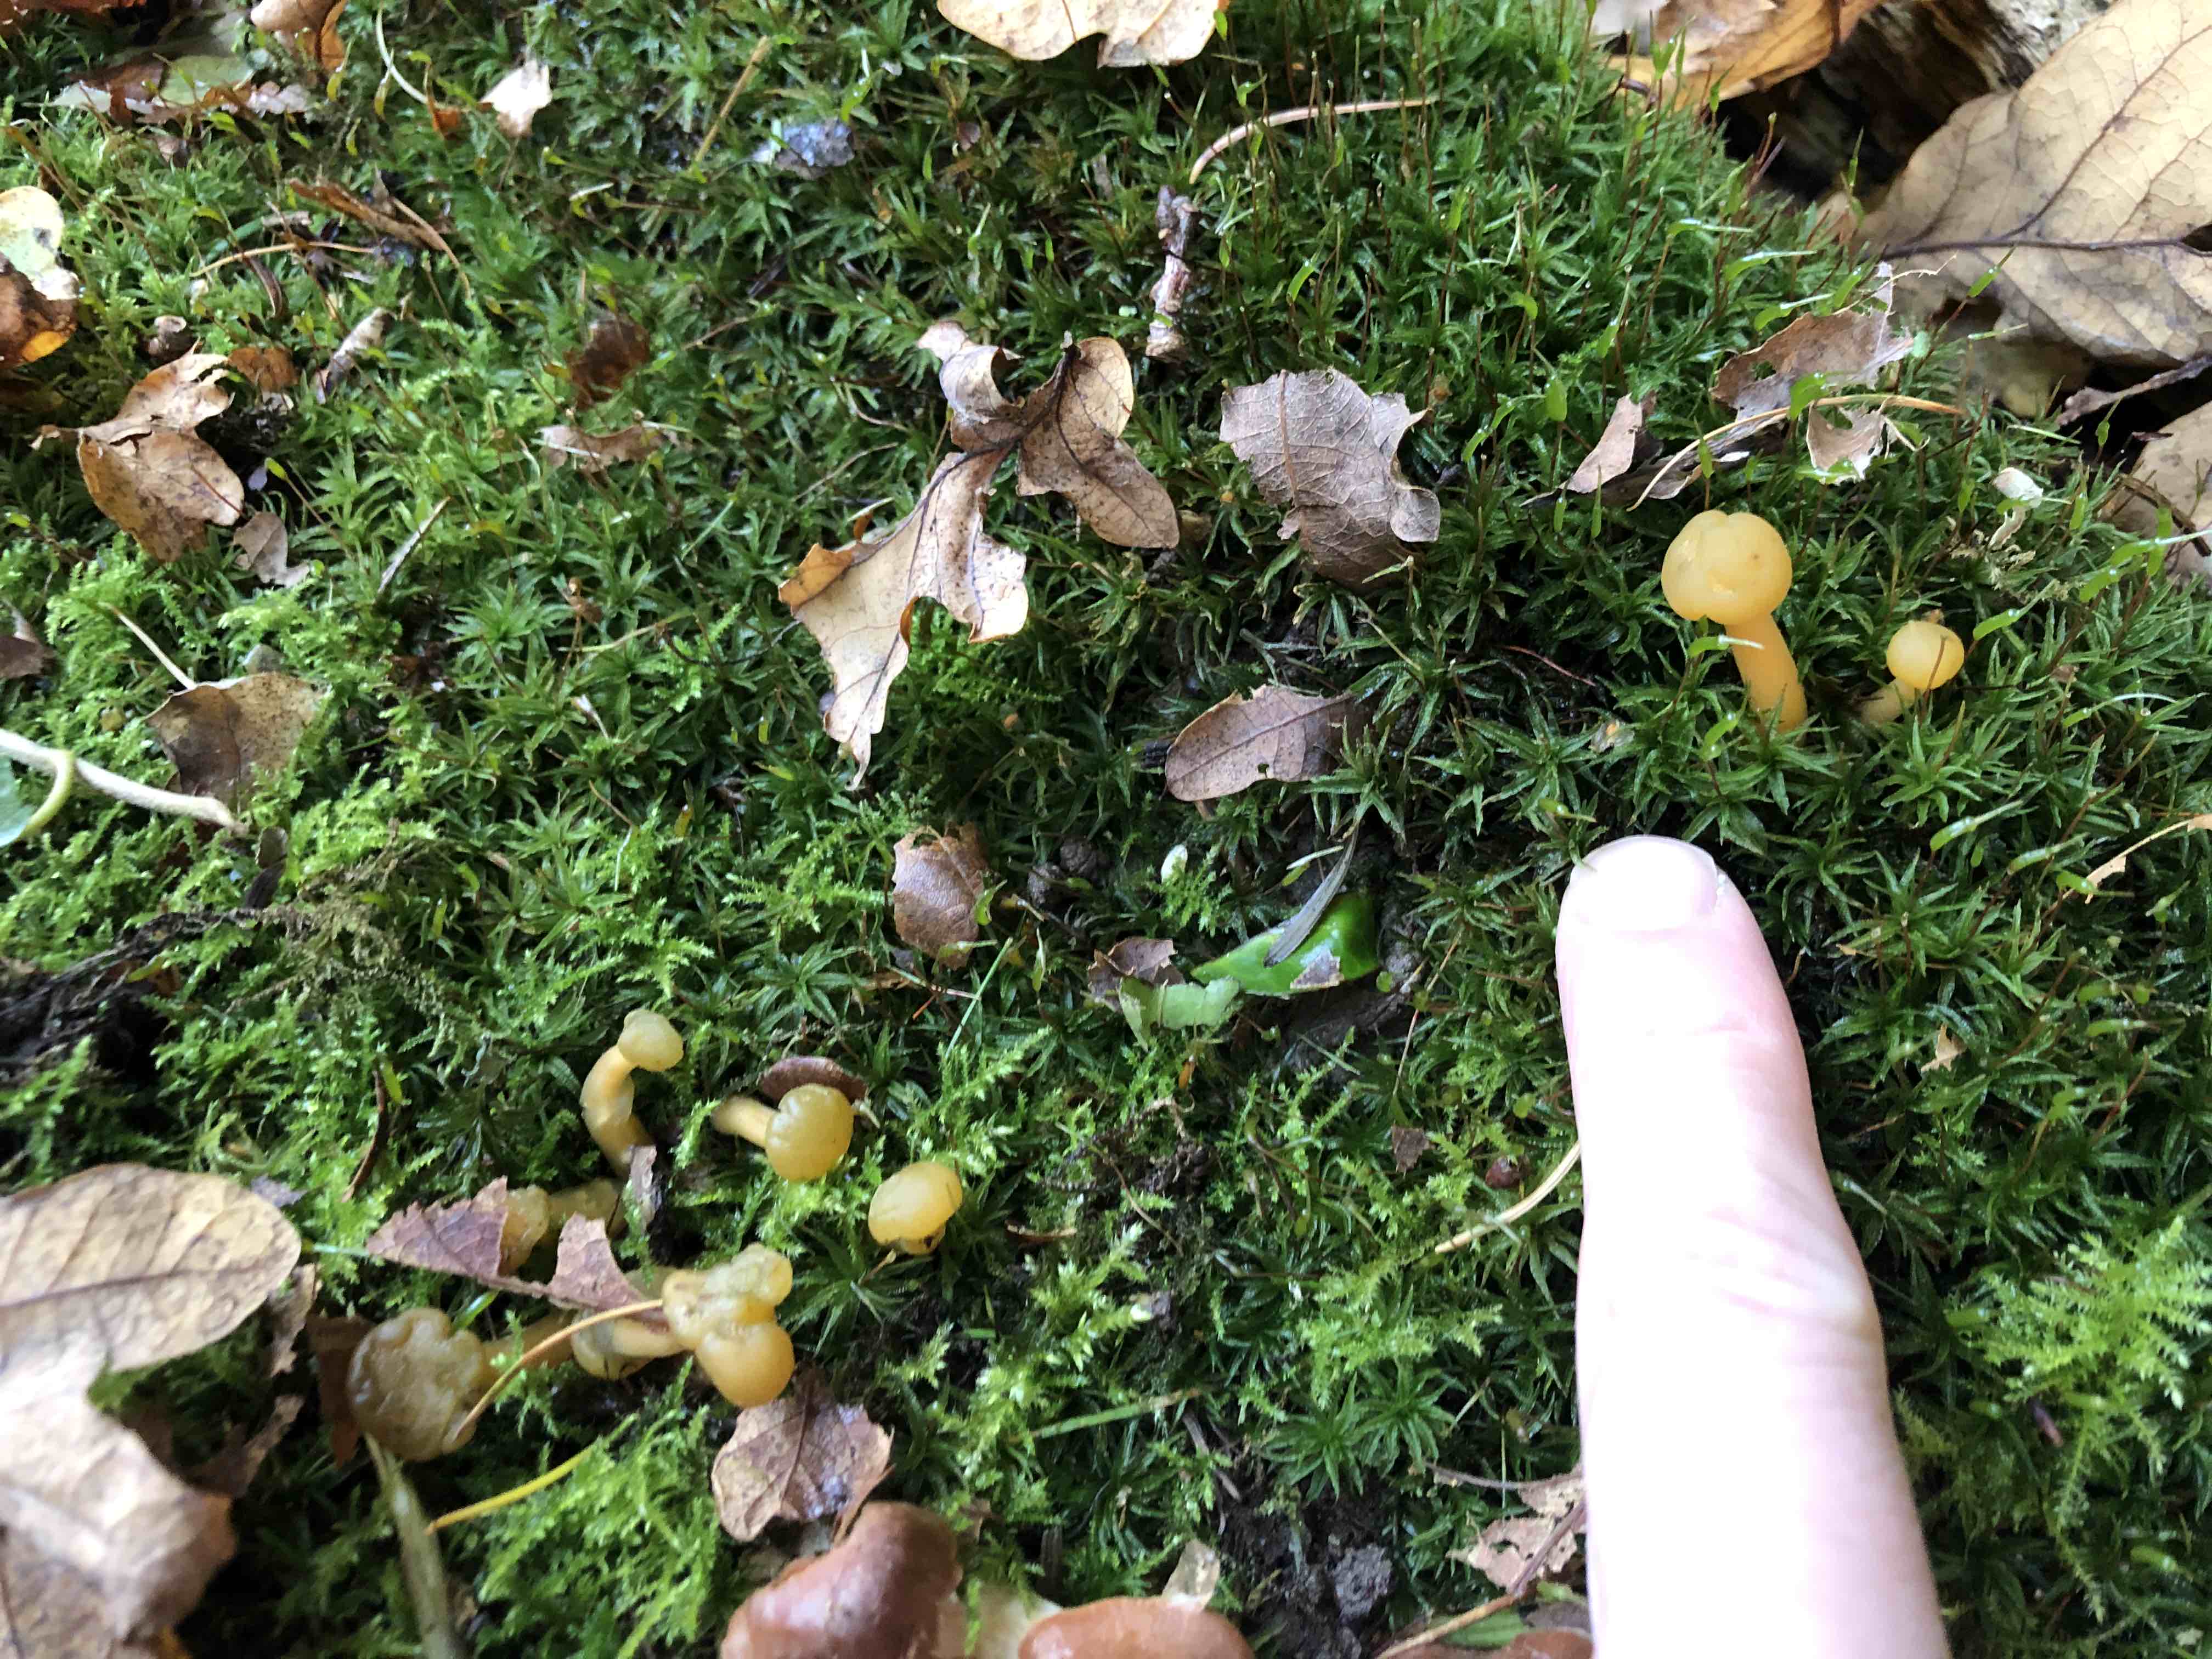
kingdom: Fungi
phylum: Ascomycota
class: Leotiomycetes
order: Leotiales
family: Leotiaceae
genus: Leotia
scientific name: Leotia lubrica
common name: ravsvamp
